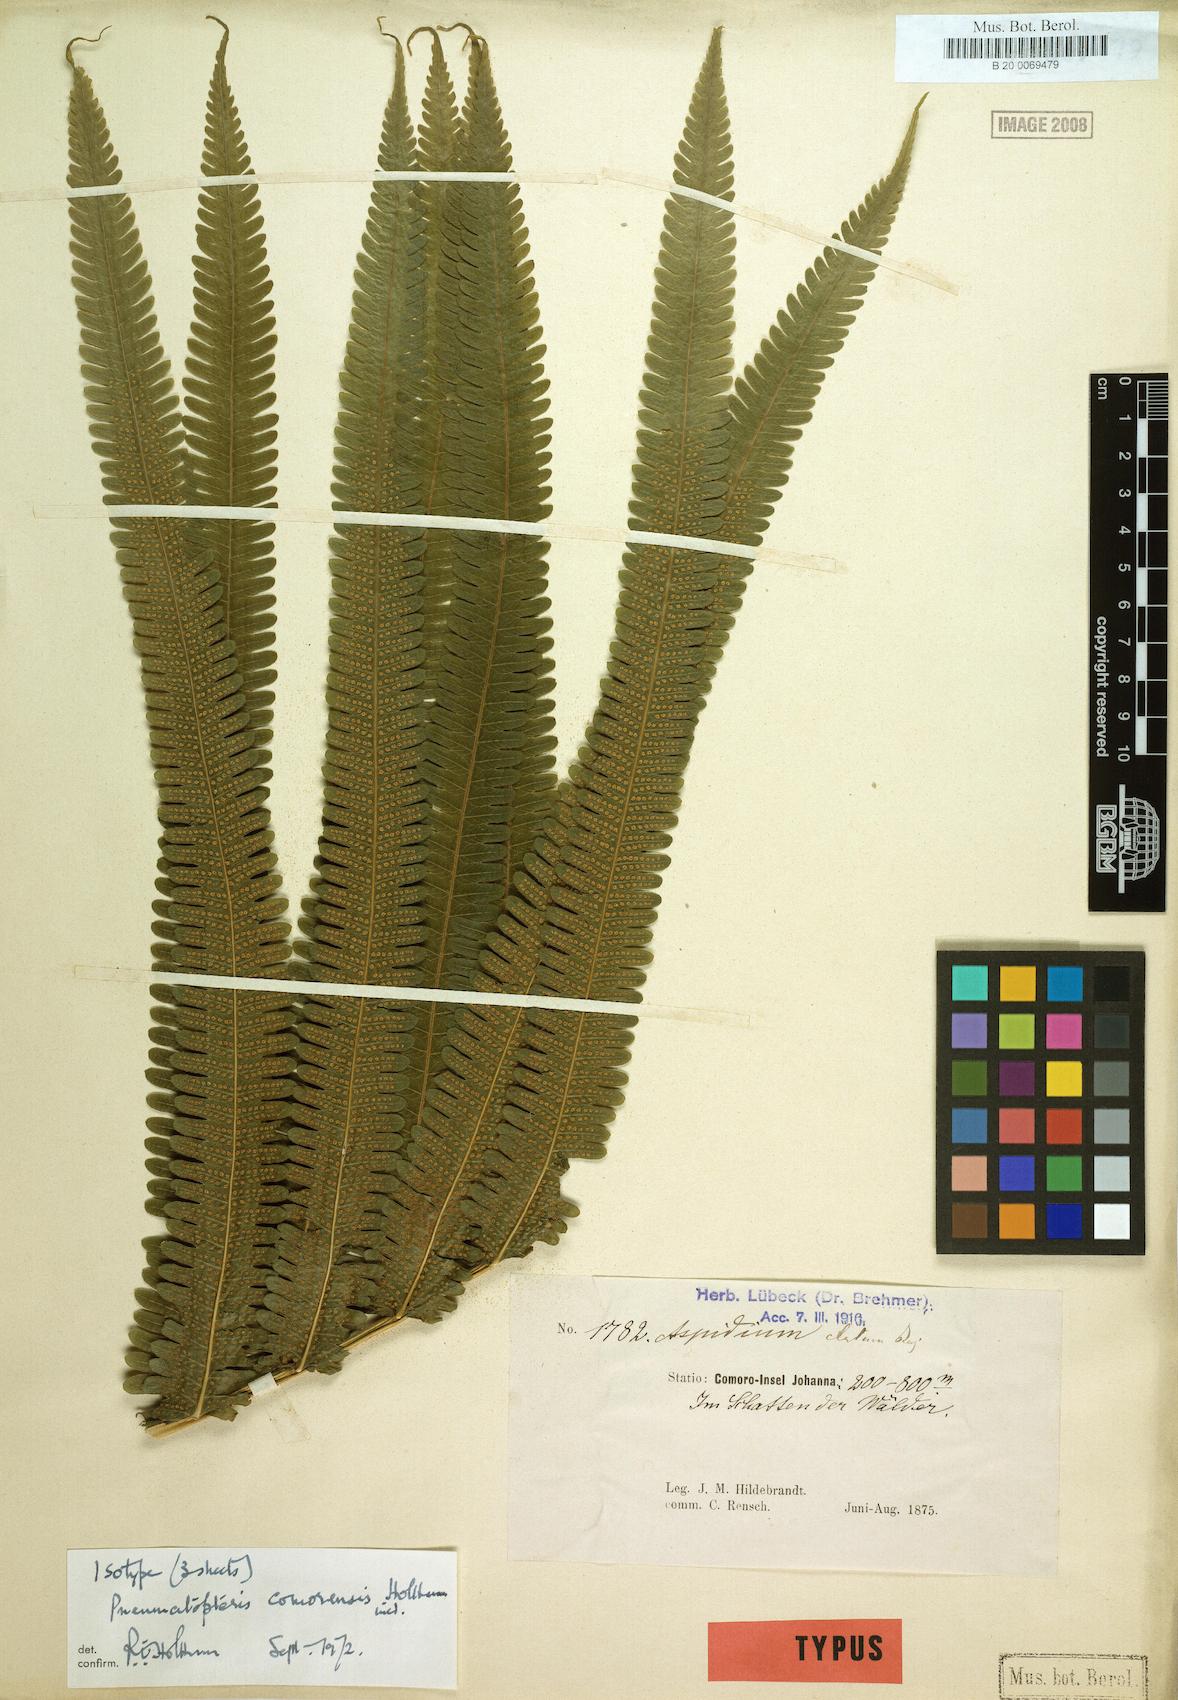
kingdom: Plantae
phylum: Tracheophyta
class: Polypodiopsida
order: Polypodiales
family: Thelypteridaceae
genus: Pneumatopteris
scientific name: Pneumatopteris comorensis
